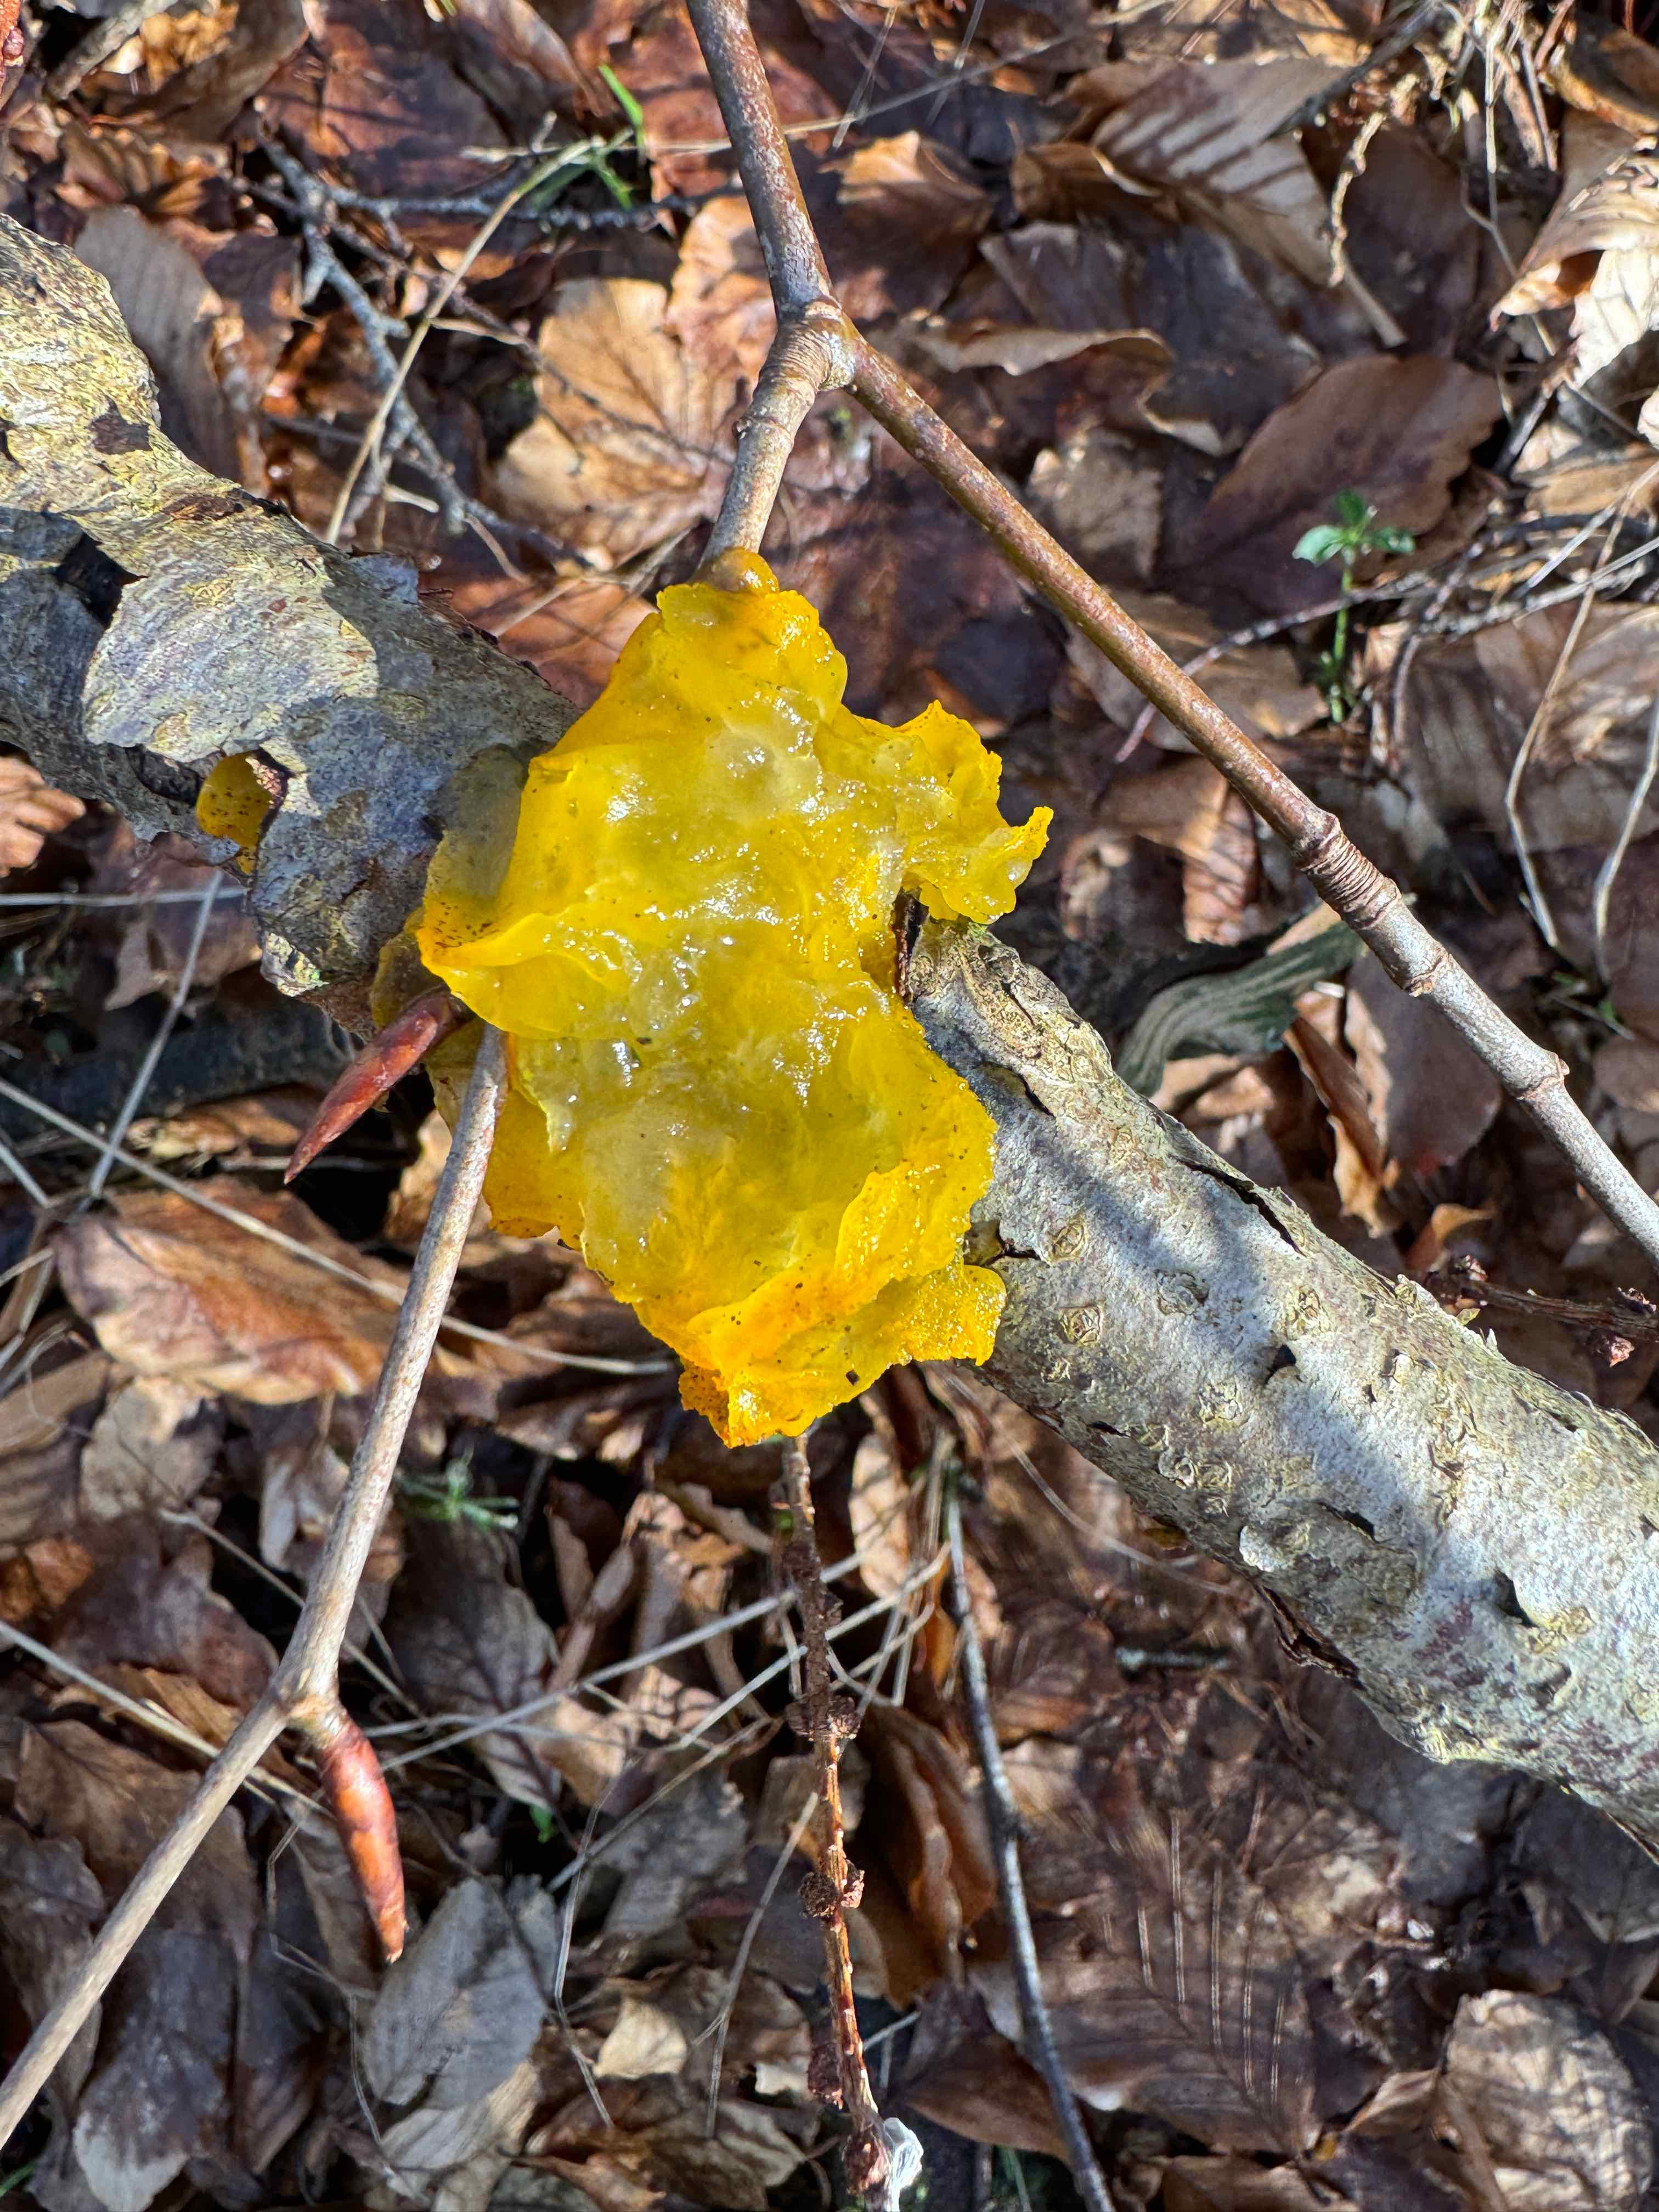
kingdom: Fungi
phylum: Basidiomycota
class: Tremellomycetes
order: Tremellales
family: Tremellaceae
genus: Tremella
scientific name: Tremella mesenterica
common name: gul bævresvamp
